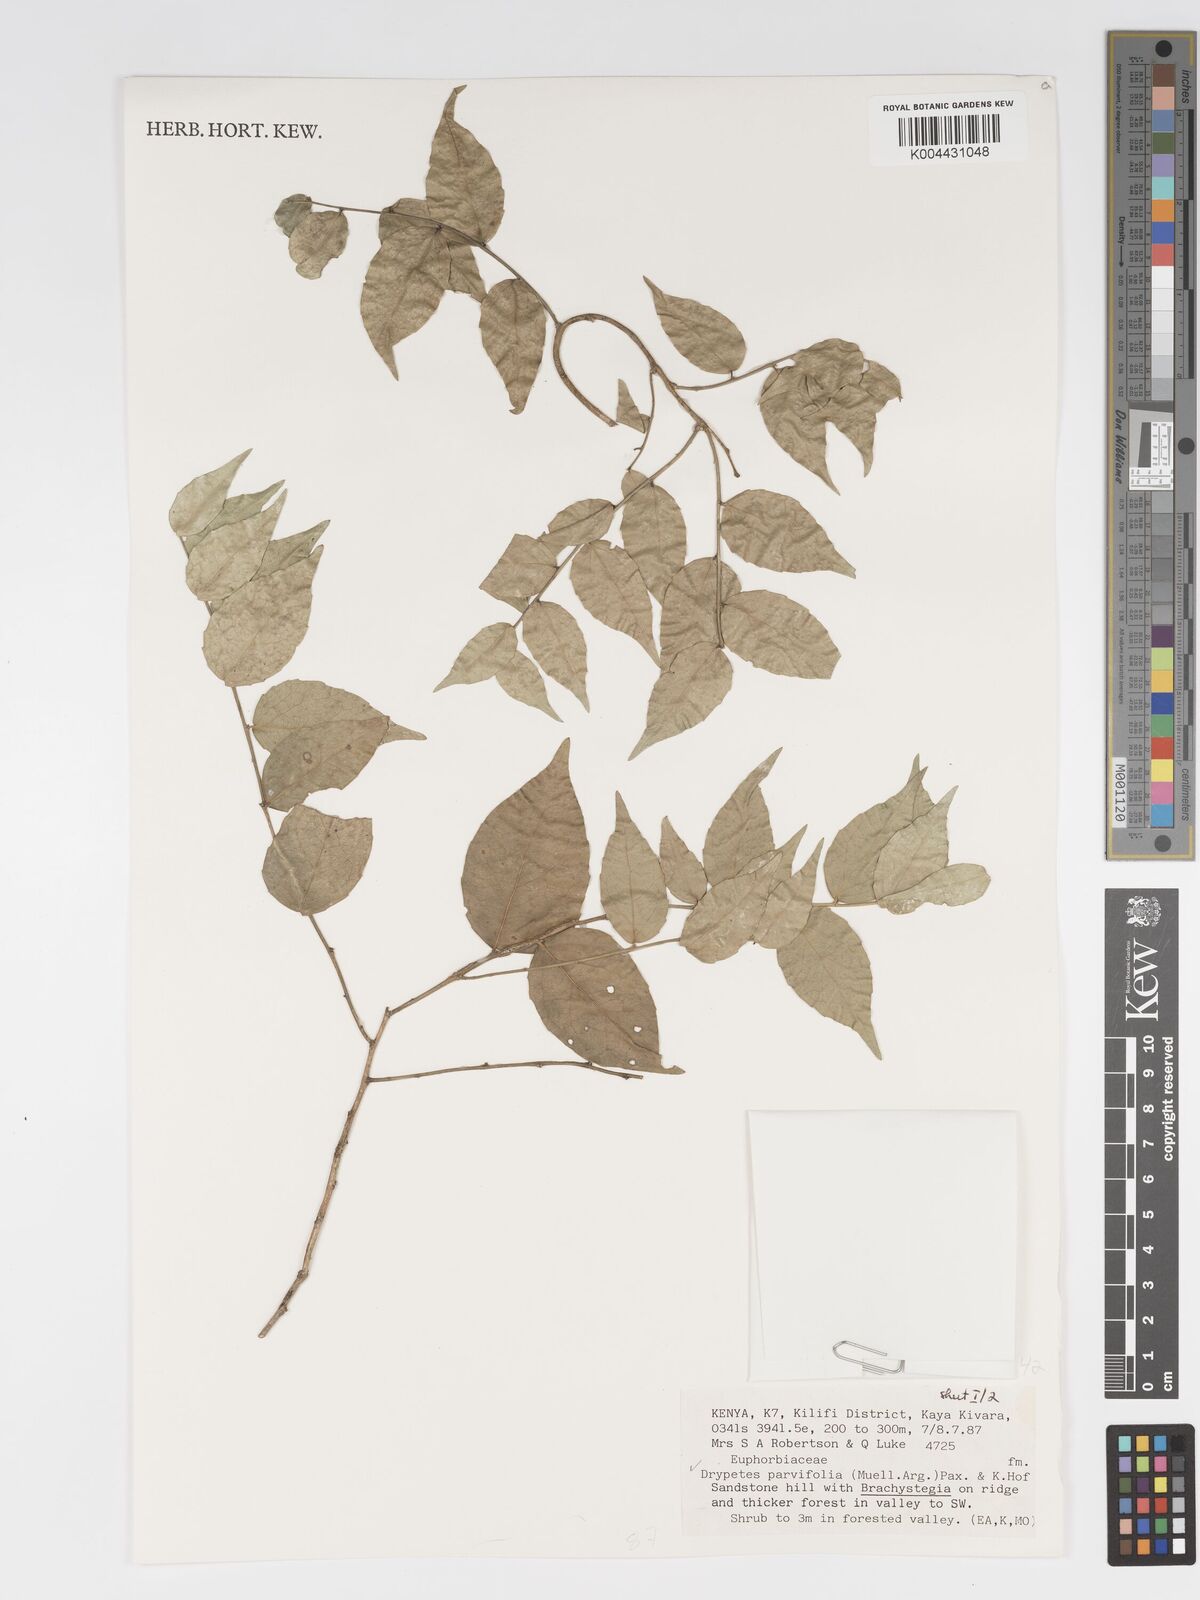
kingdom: Plantae
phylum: Tracheophyta
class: Magnoliopsida
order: Malpighiales
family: Putranjivaceae
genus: Drypetes
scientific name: Drypetes parvifolia
